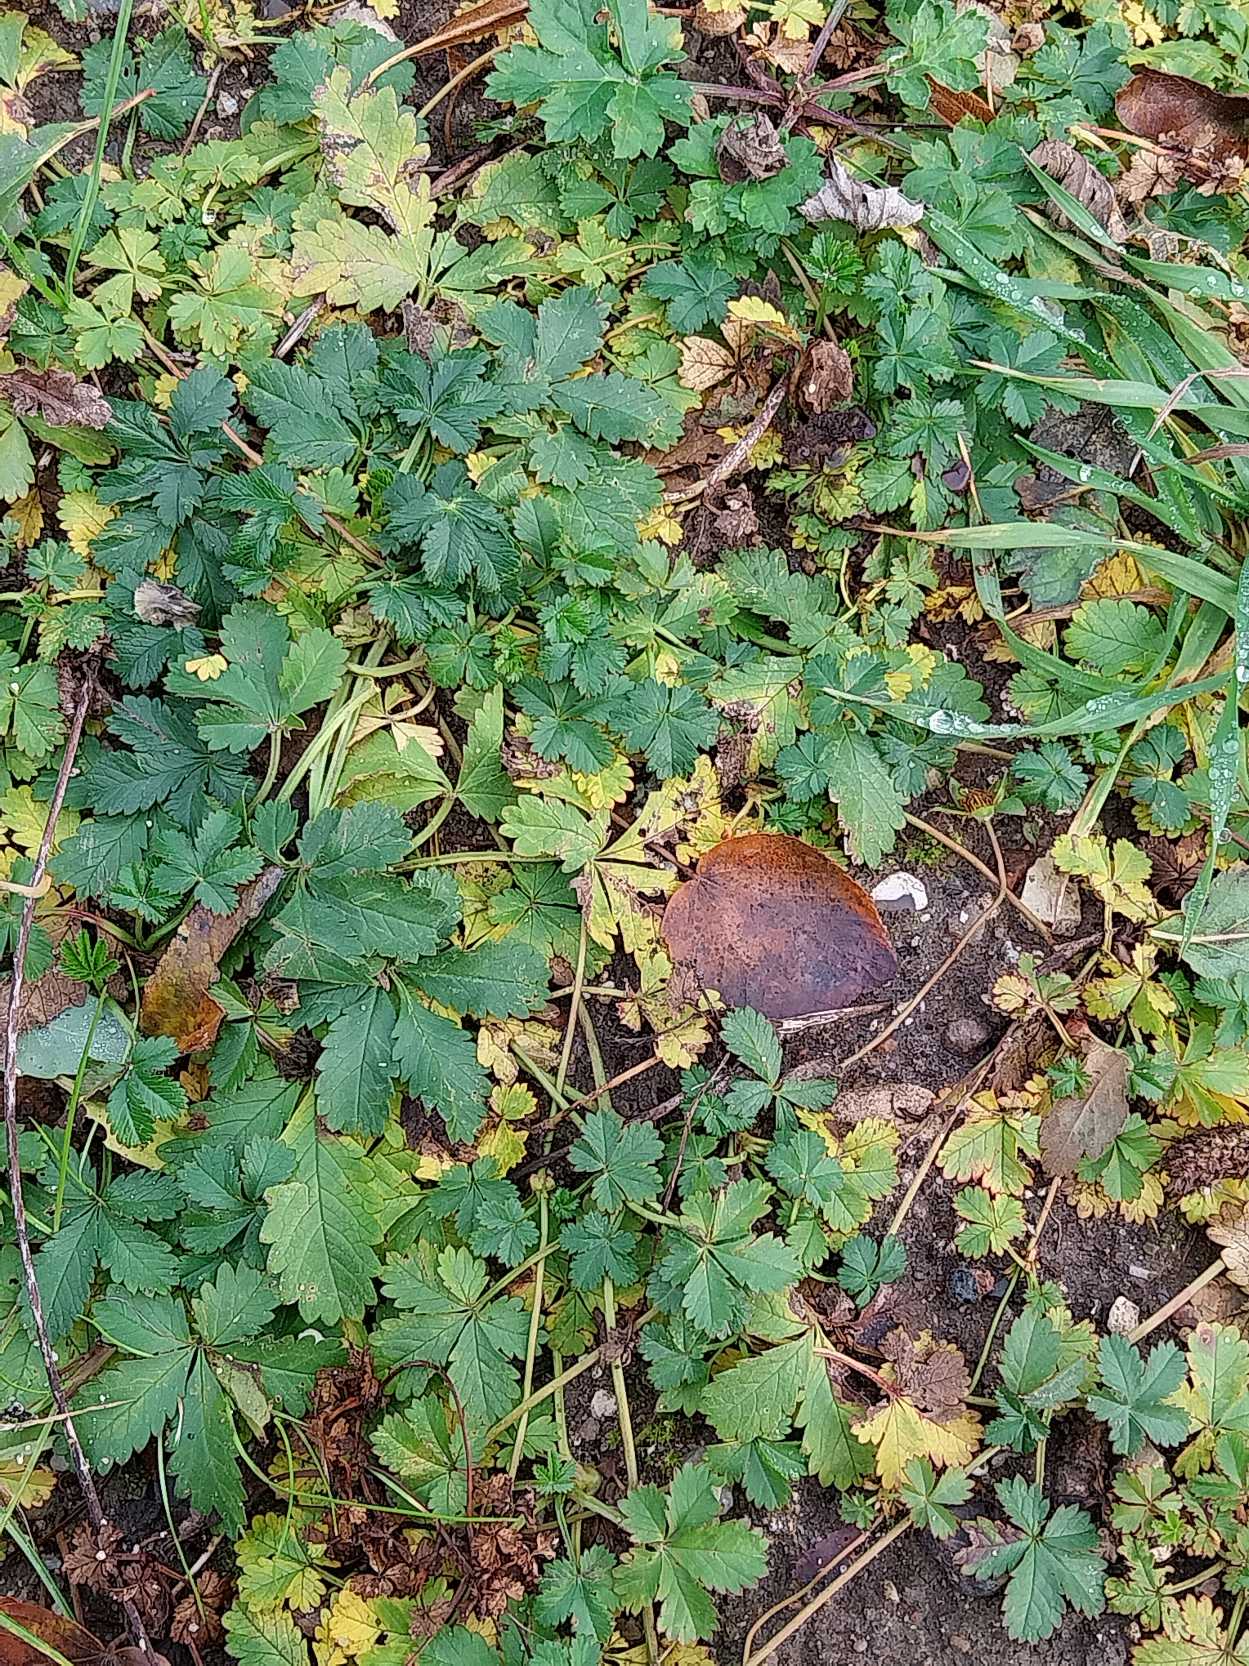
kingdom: Plantae
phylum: Tracheophyta
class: Magnoliopsida
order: Rosales
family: Rosaceae
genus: Potentilla
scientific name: Potentilla reptans
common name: Krybende potentil
